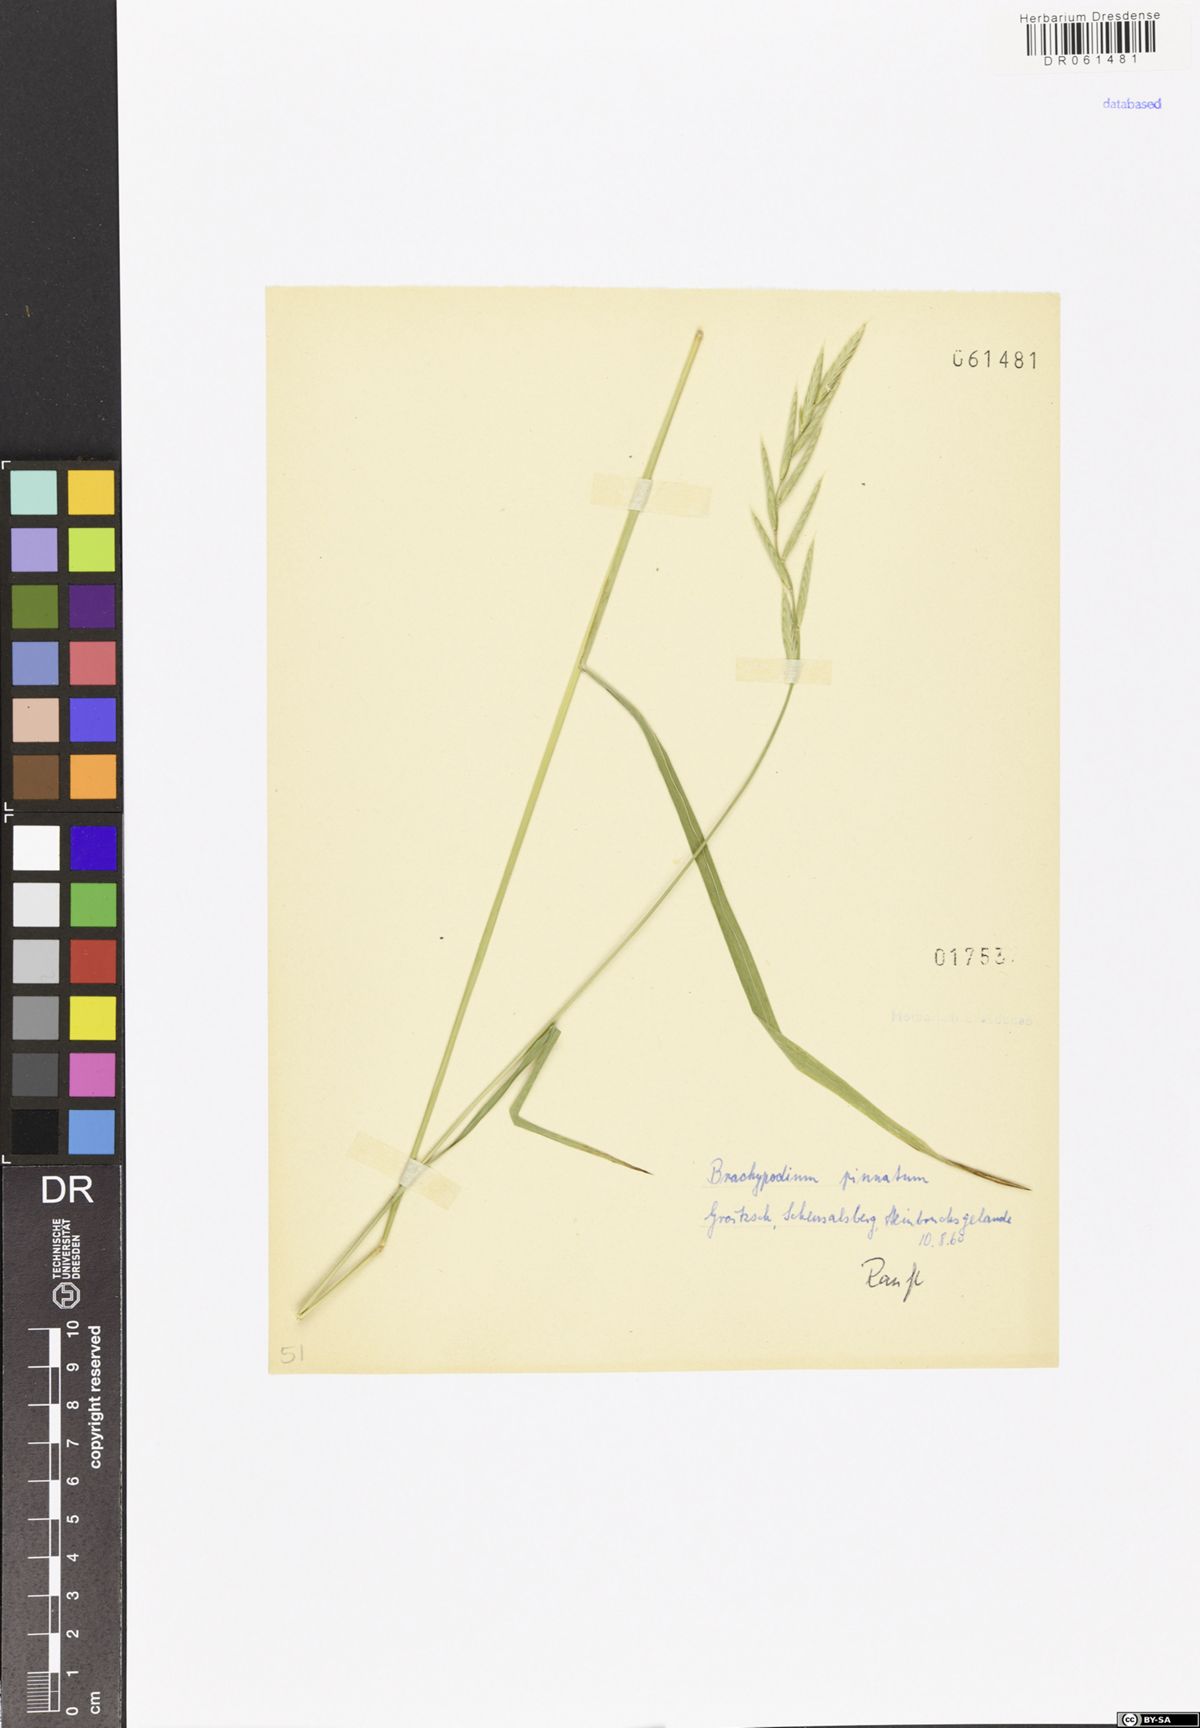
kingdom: Plantae
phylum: Tracheophyta
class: Liliopsida
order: Poales
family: Poaceae
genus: Brachypodium
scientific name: Brachypodium pinnatum
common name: Tor grass
